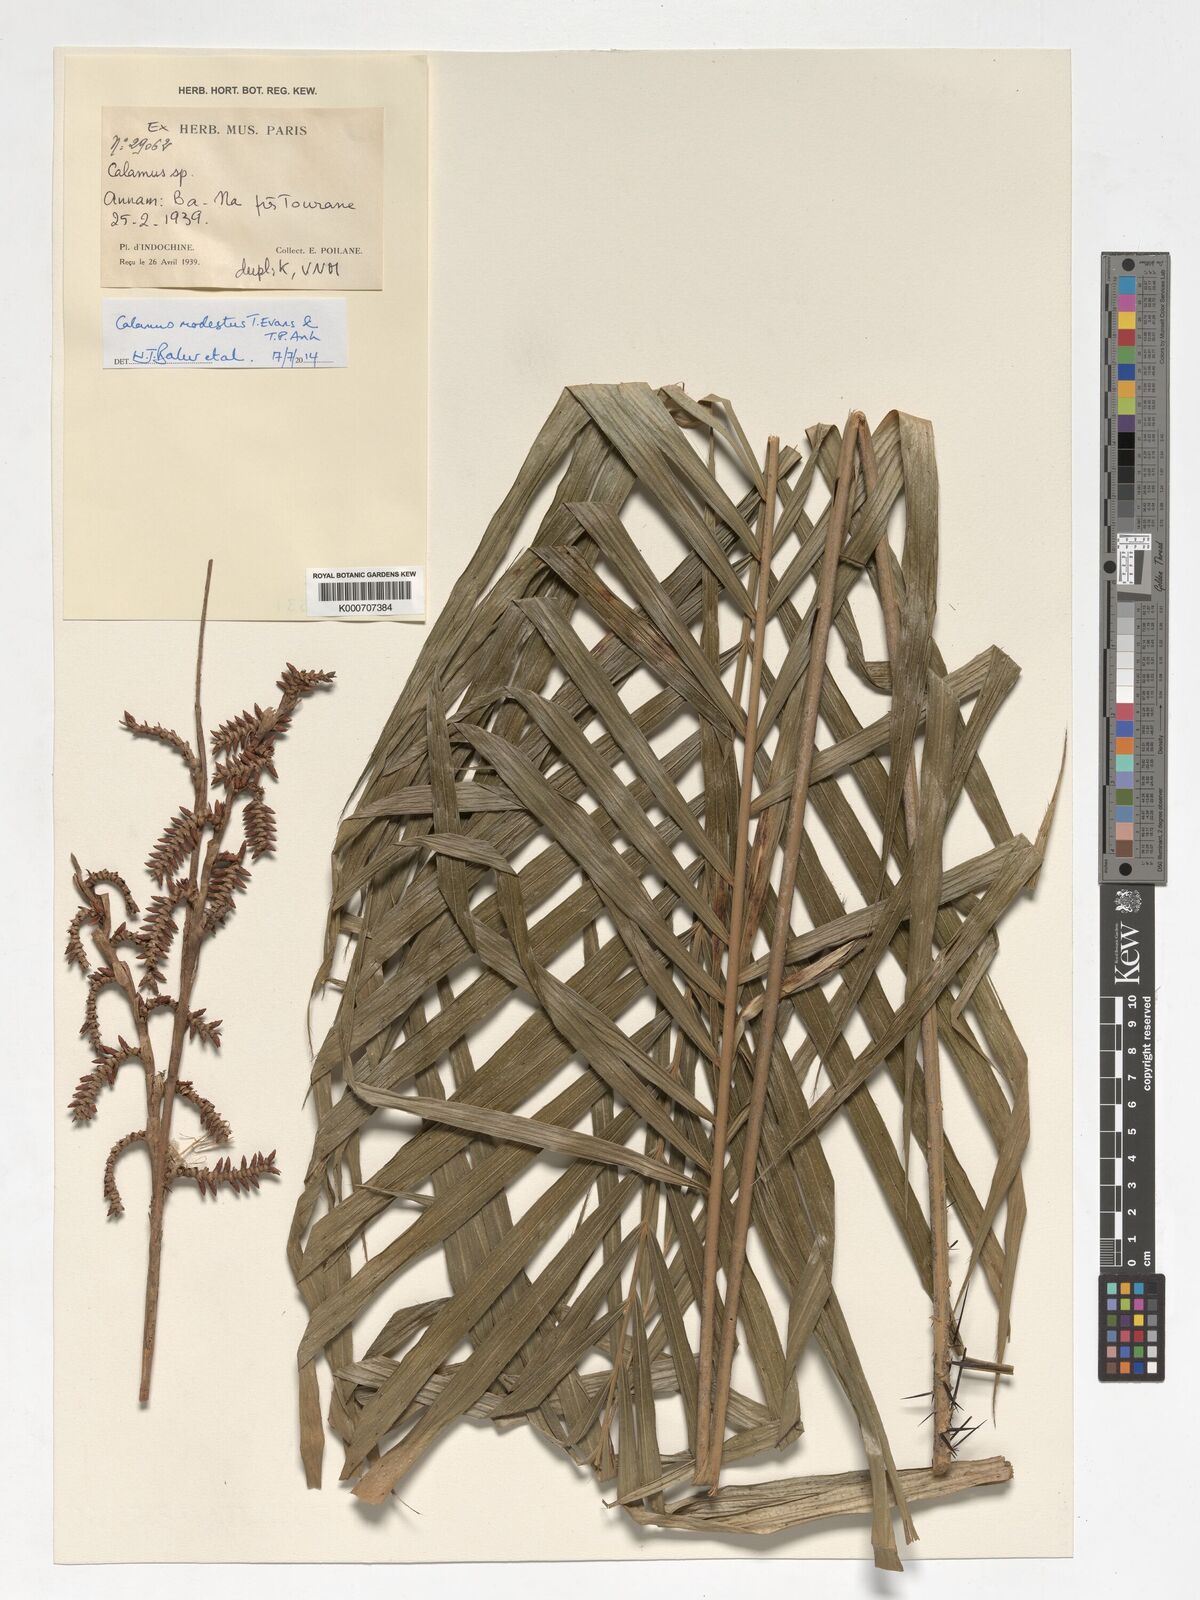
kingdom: Plantae
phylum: Tracheophyta
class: Liliopsida
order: Arecales
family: Arecaceae
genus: Calamus
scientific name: Calamus modestus
